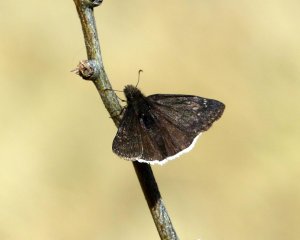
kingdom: Animalia
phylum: Arthropoda
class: Insecta
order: Lepidoptera
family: Hesperiidae
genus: Erynnis
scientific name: Erynnis funeralis
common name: Funereal Duskywing
